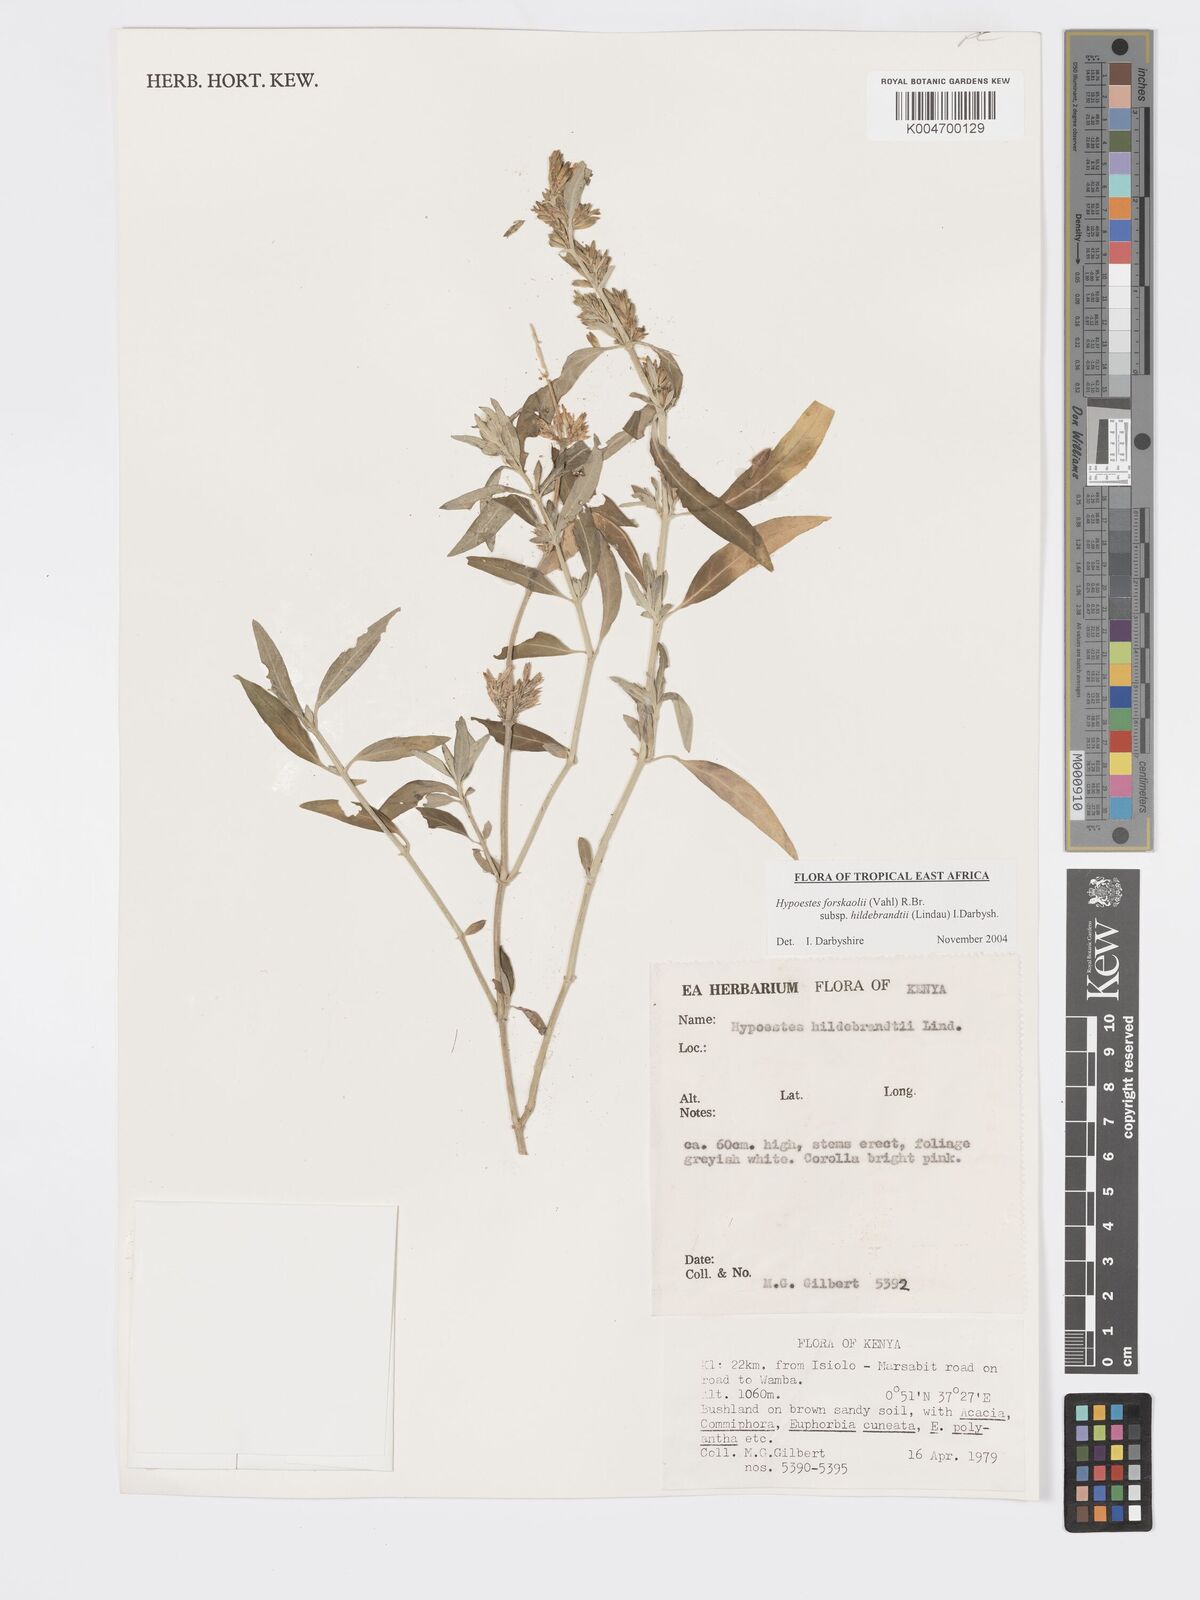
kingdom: Plantae
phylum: Tracheophyta
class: Magnoliopsida
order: Lamiales
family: Acanthaceae
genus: Hypoestes
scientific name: Hypoestes forskaolii
